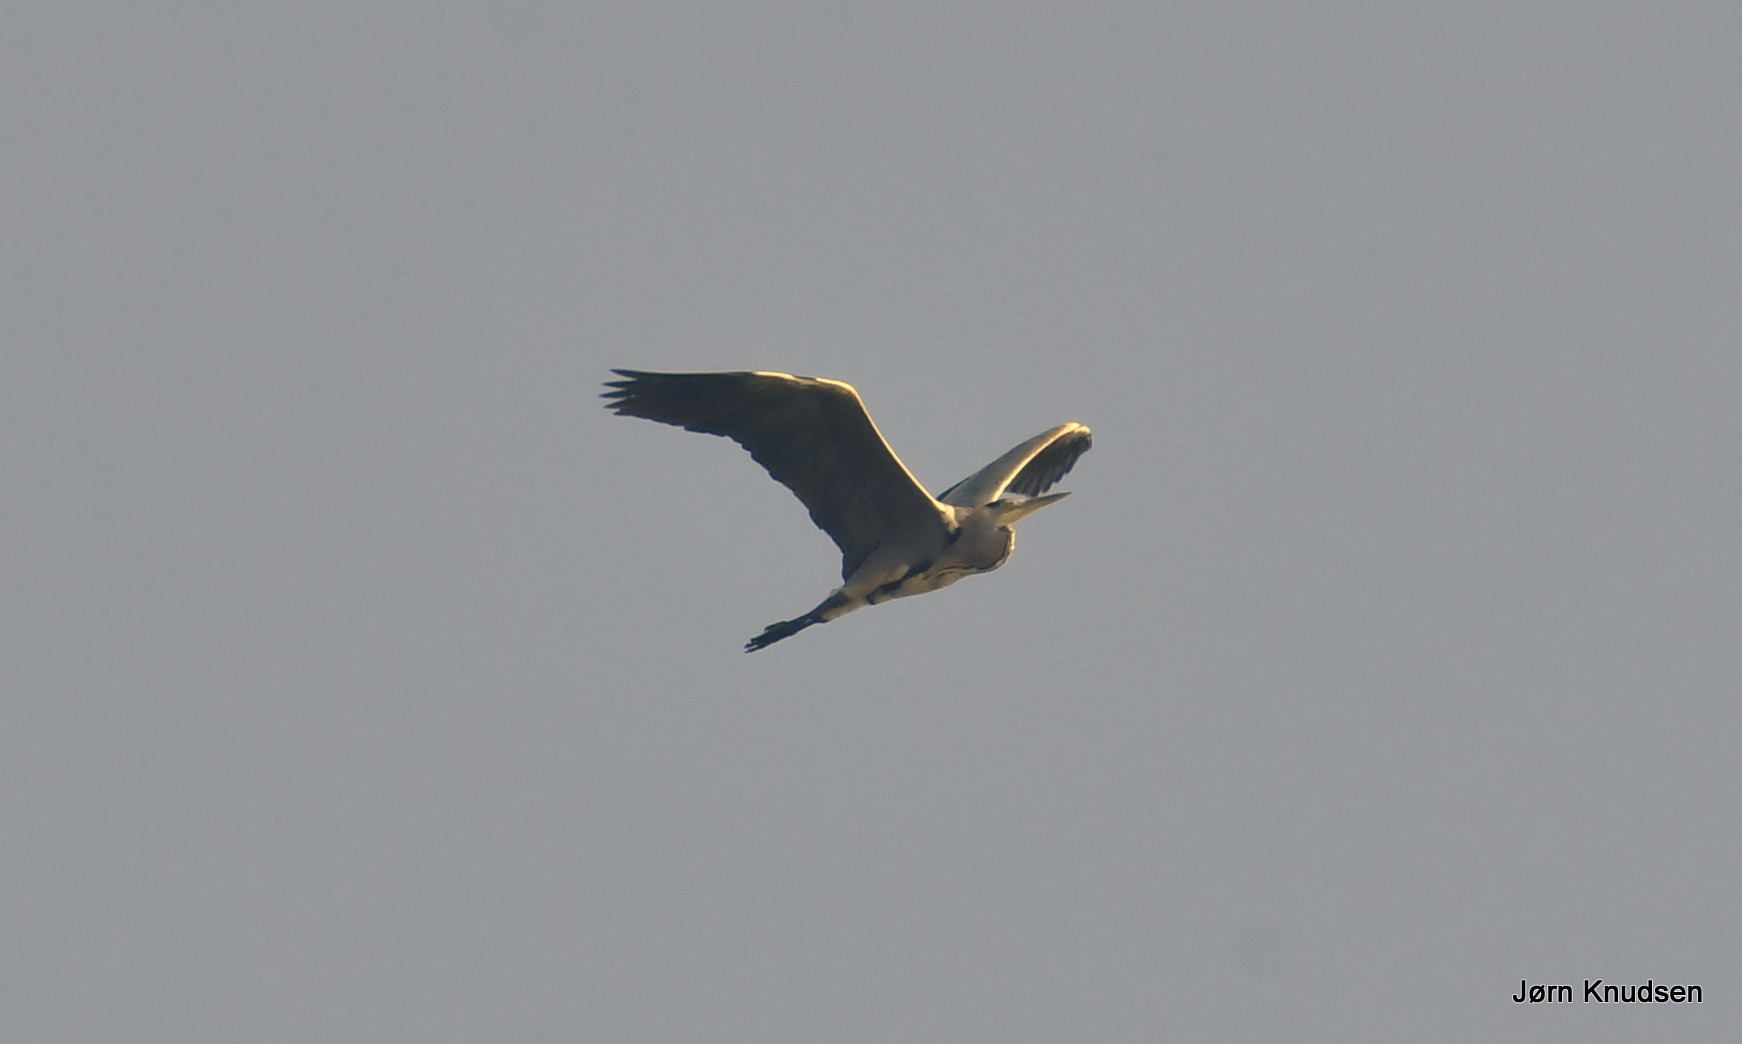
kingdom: Animalia
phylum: Chordata
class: Aves
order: Pelecaniformes
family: Ardeidae
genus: Ardea
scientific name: Ardea cinerea
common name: Fiskehejre
